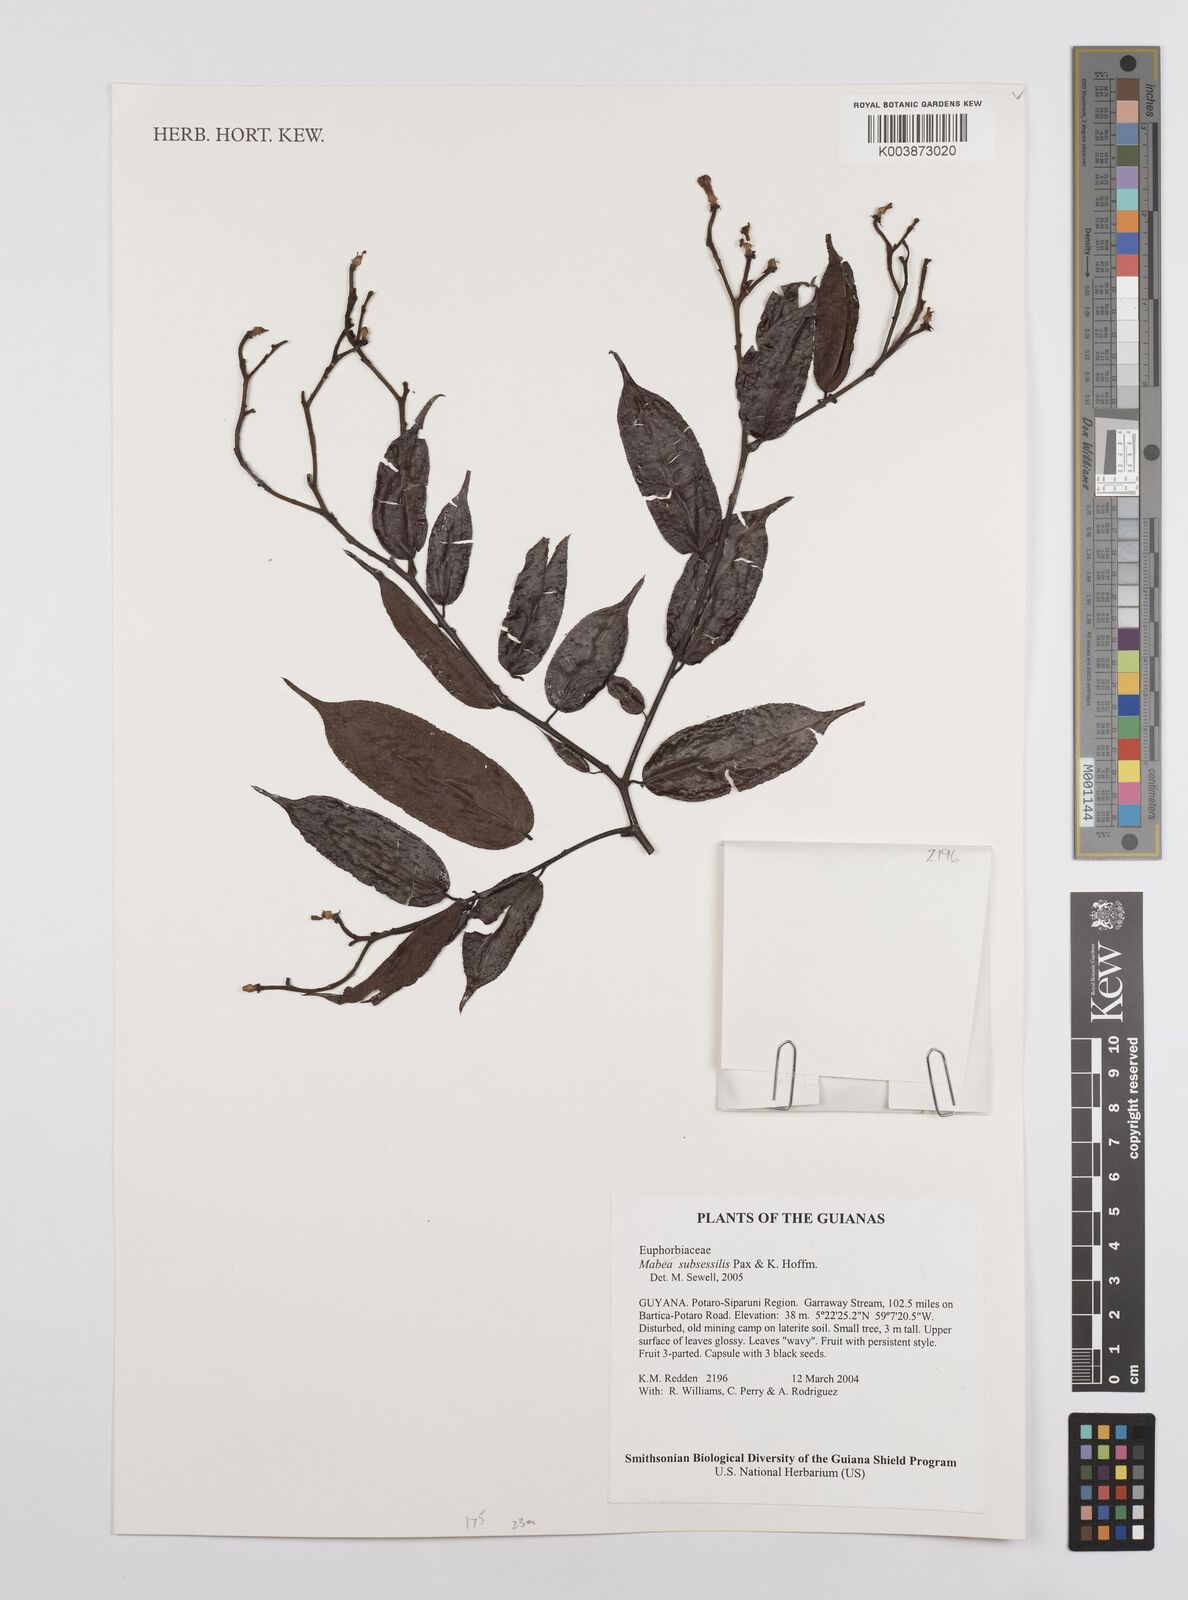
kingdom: Plantae
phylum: Tracheophyta
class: Magnoliopsida
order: Malpighiales
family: Euphorbiaceae
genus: Mabea
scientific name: Mabea subsessilis
